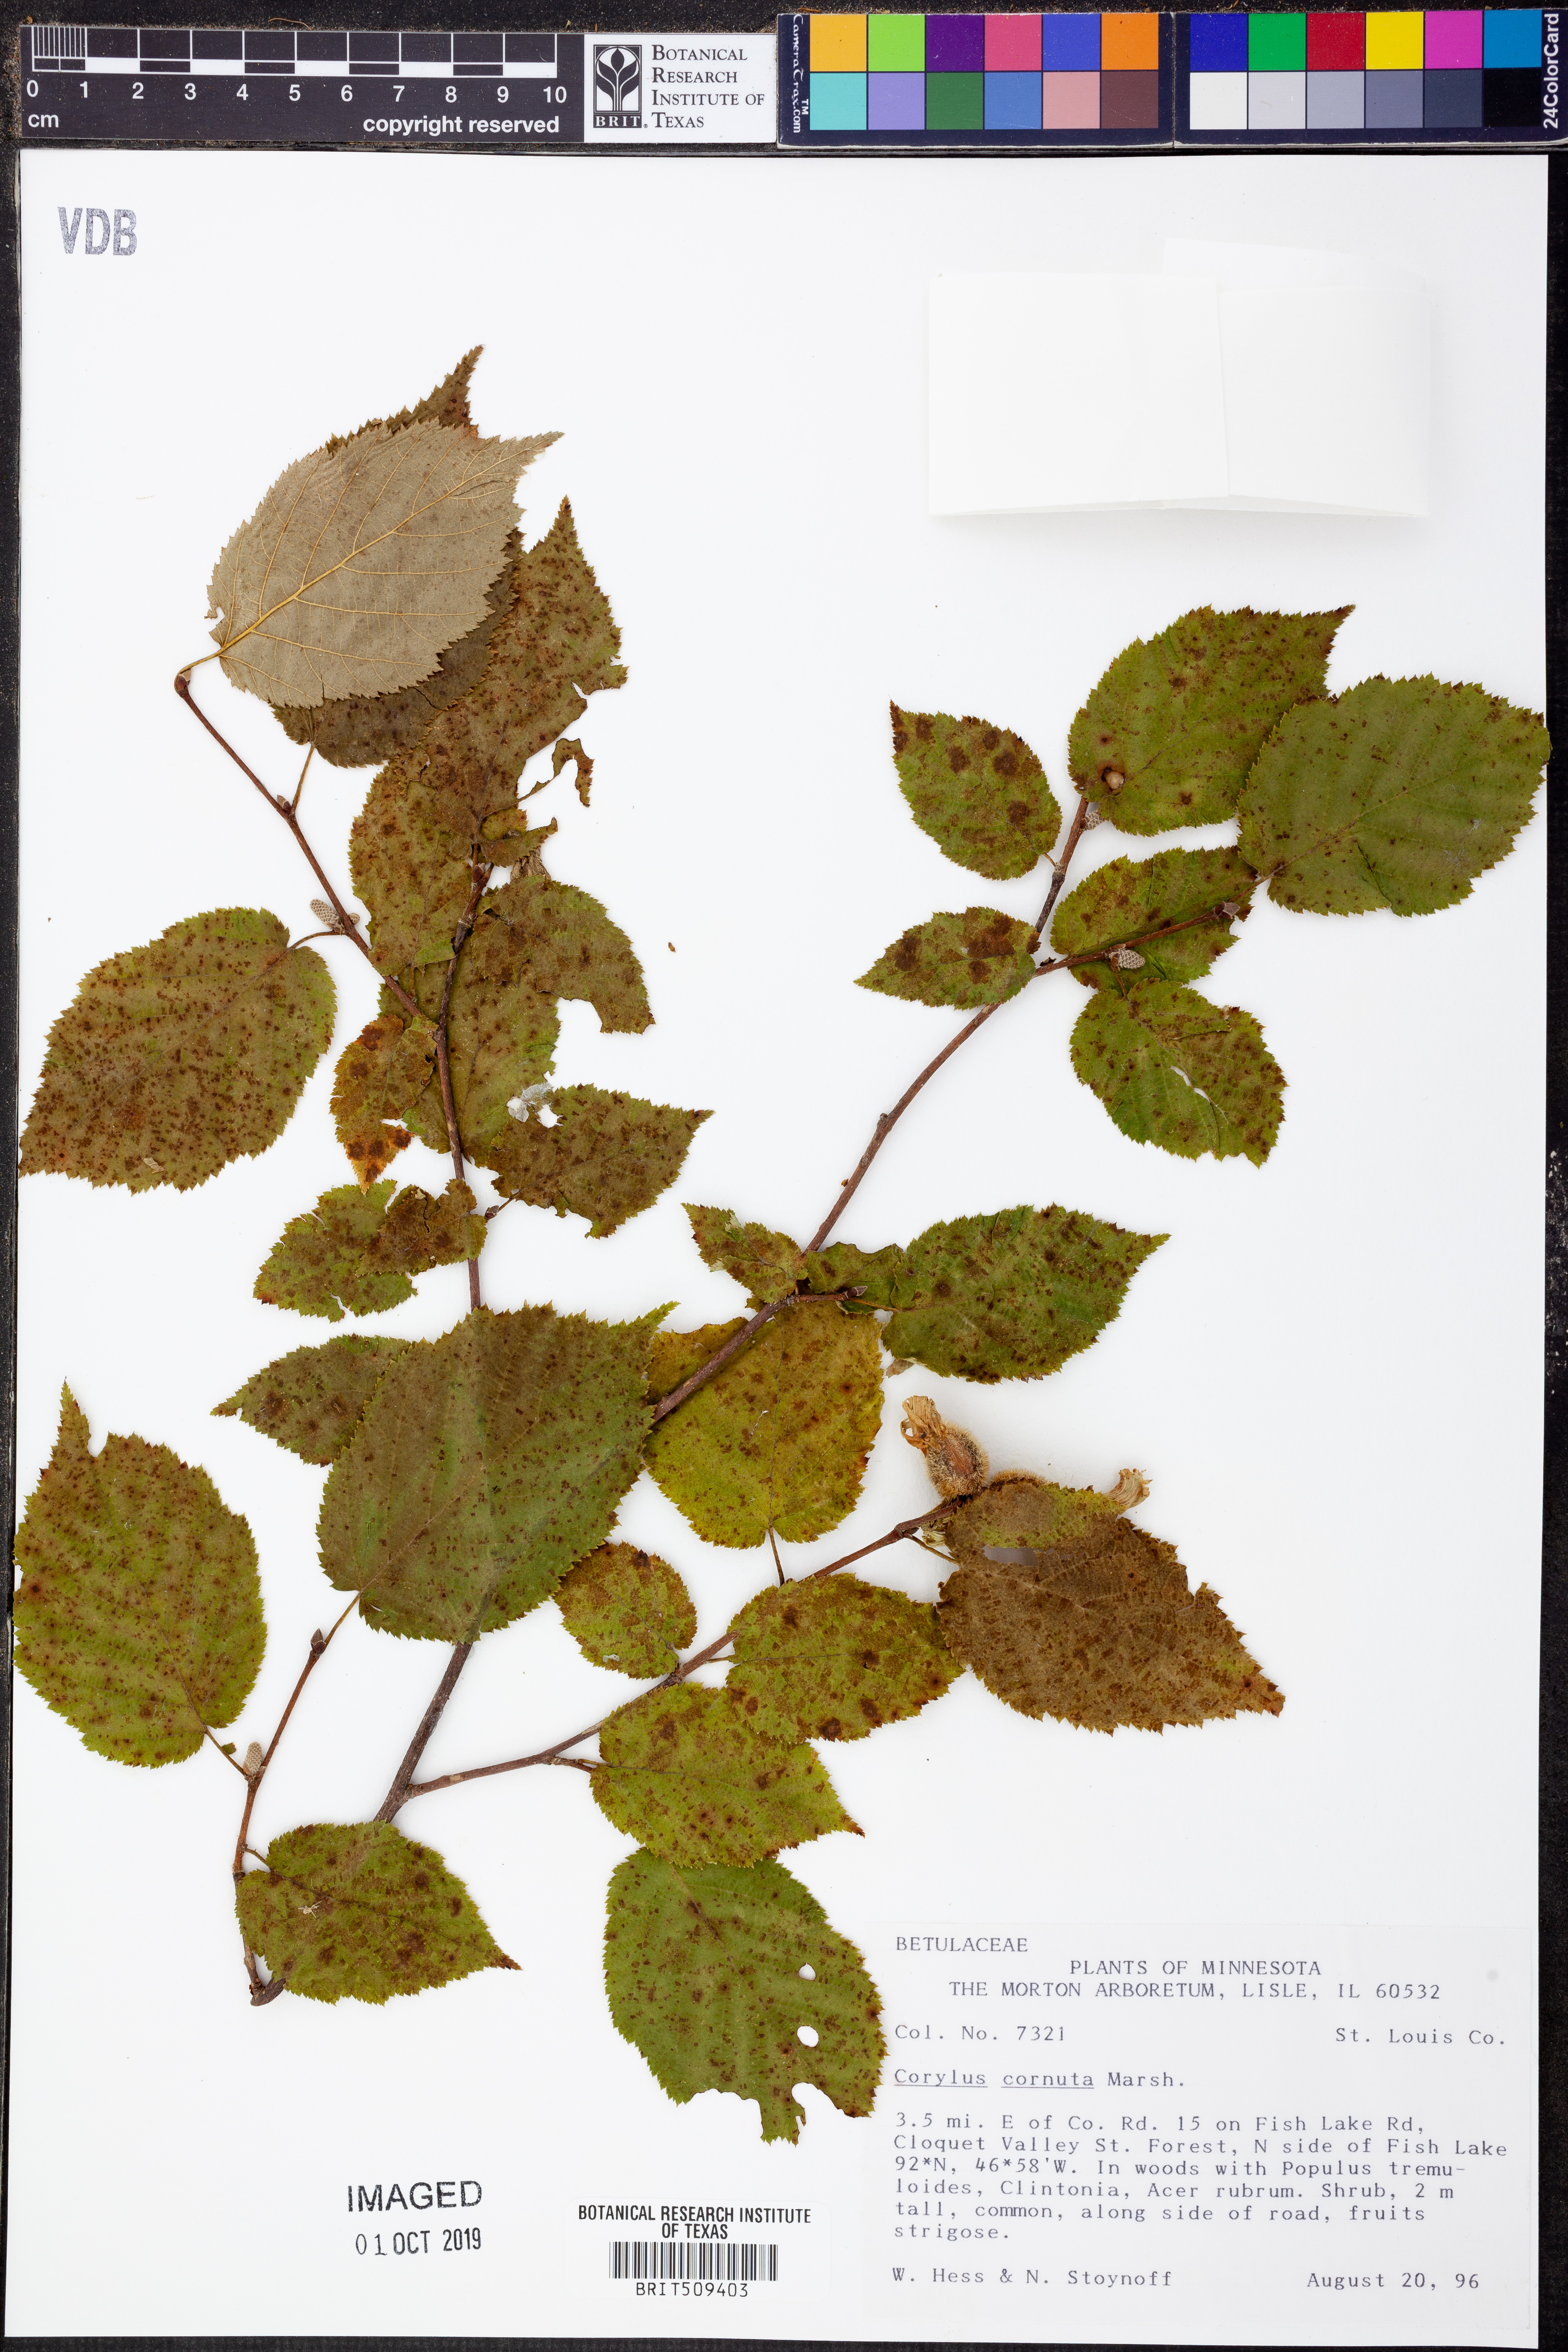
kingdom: Plantae
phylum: Tracheophyta
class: Magnoliopsida
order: Fagales
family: Betulaceae
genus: Corylus
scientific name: Corylus cornuta
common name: Beaked hazel
